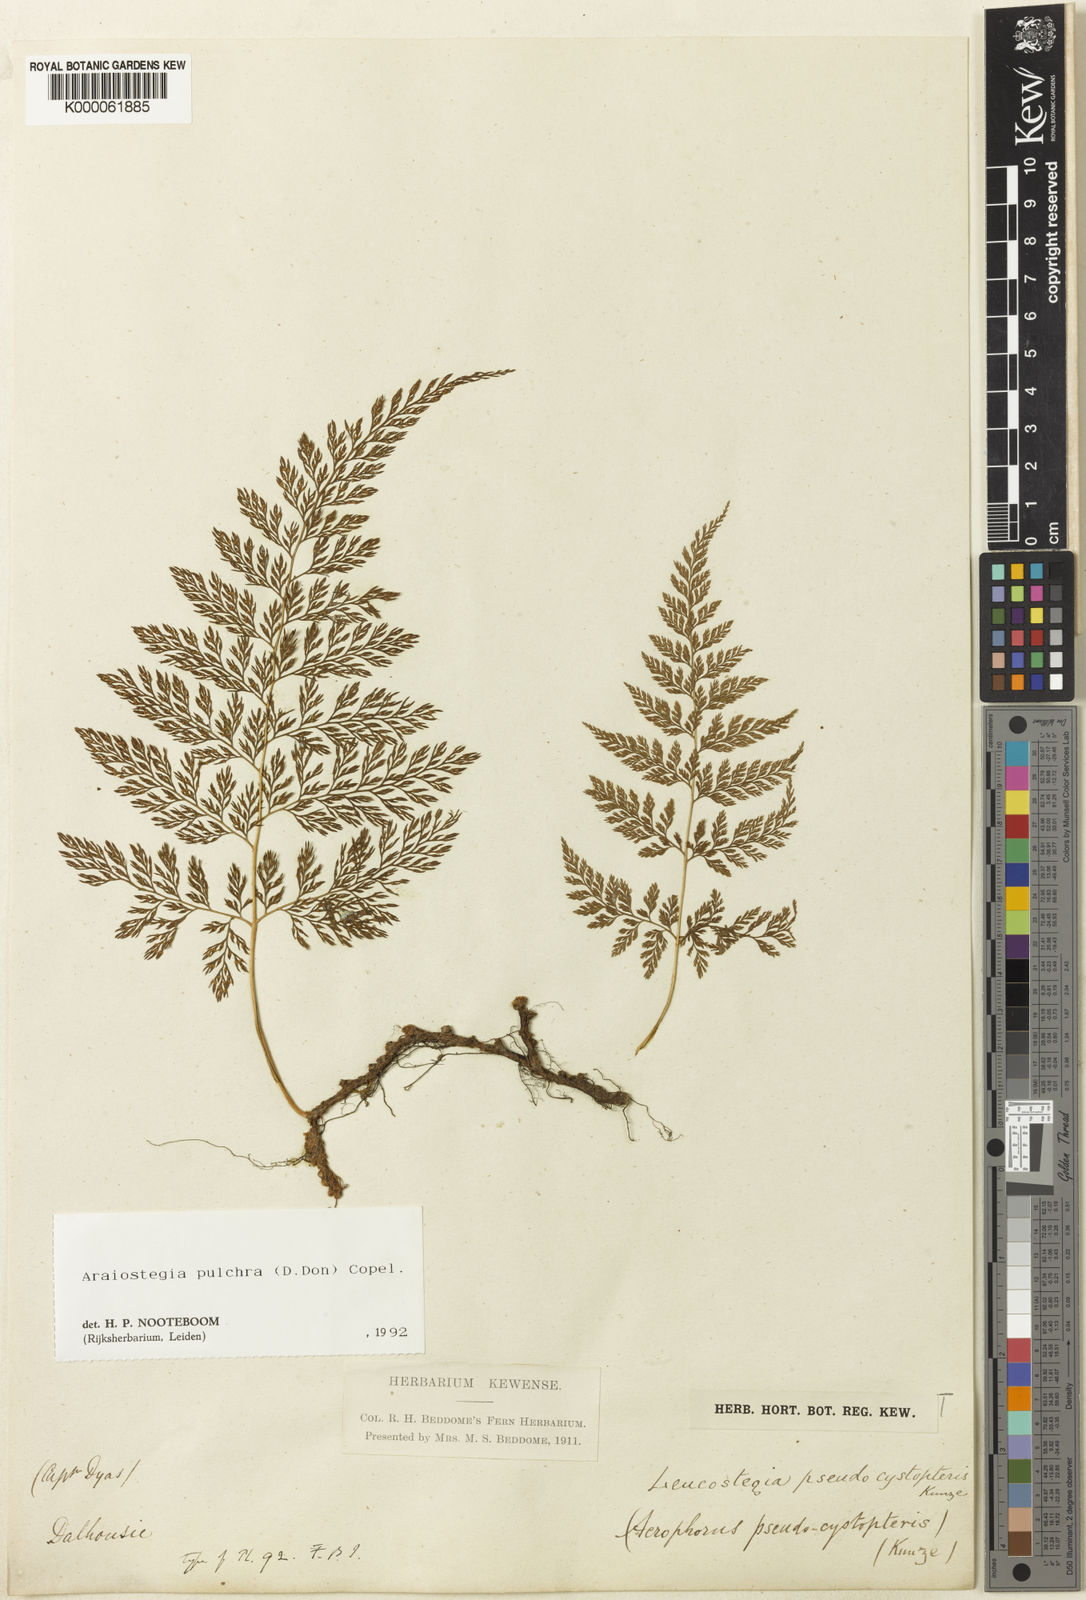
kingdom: Plantae
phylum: Tracheophyta
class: Polypodiopsida
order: Polypodiales
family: Davalliaceae
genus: Davallodes
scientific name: Davallodes pulchra
